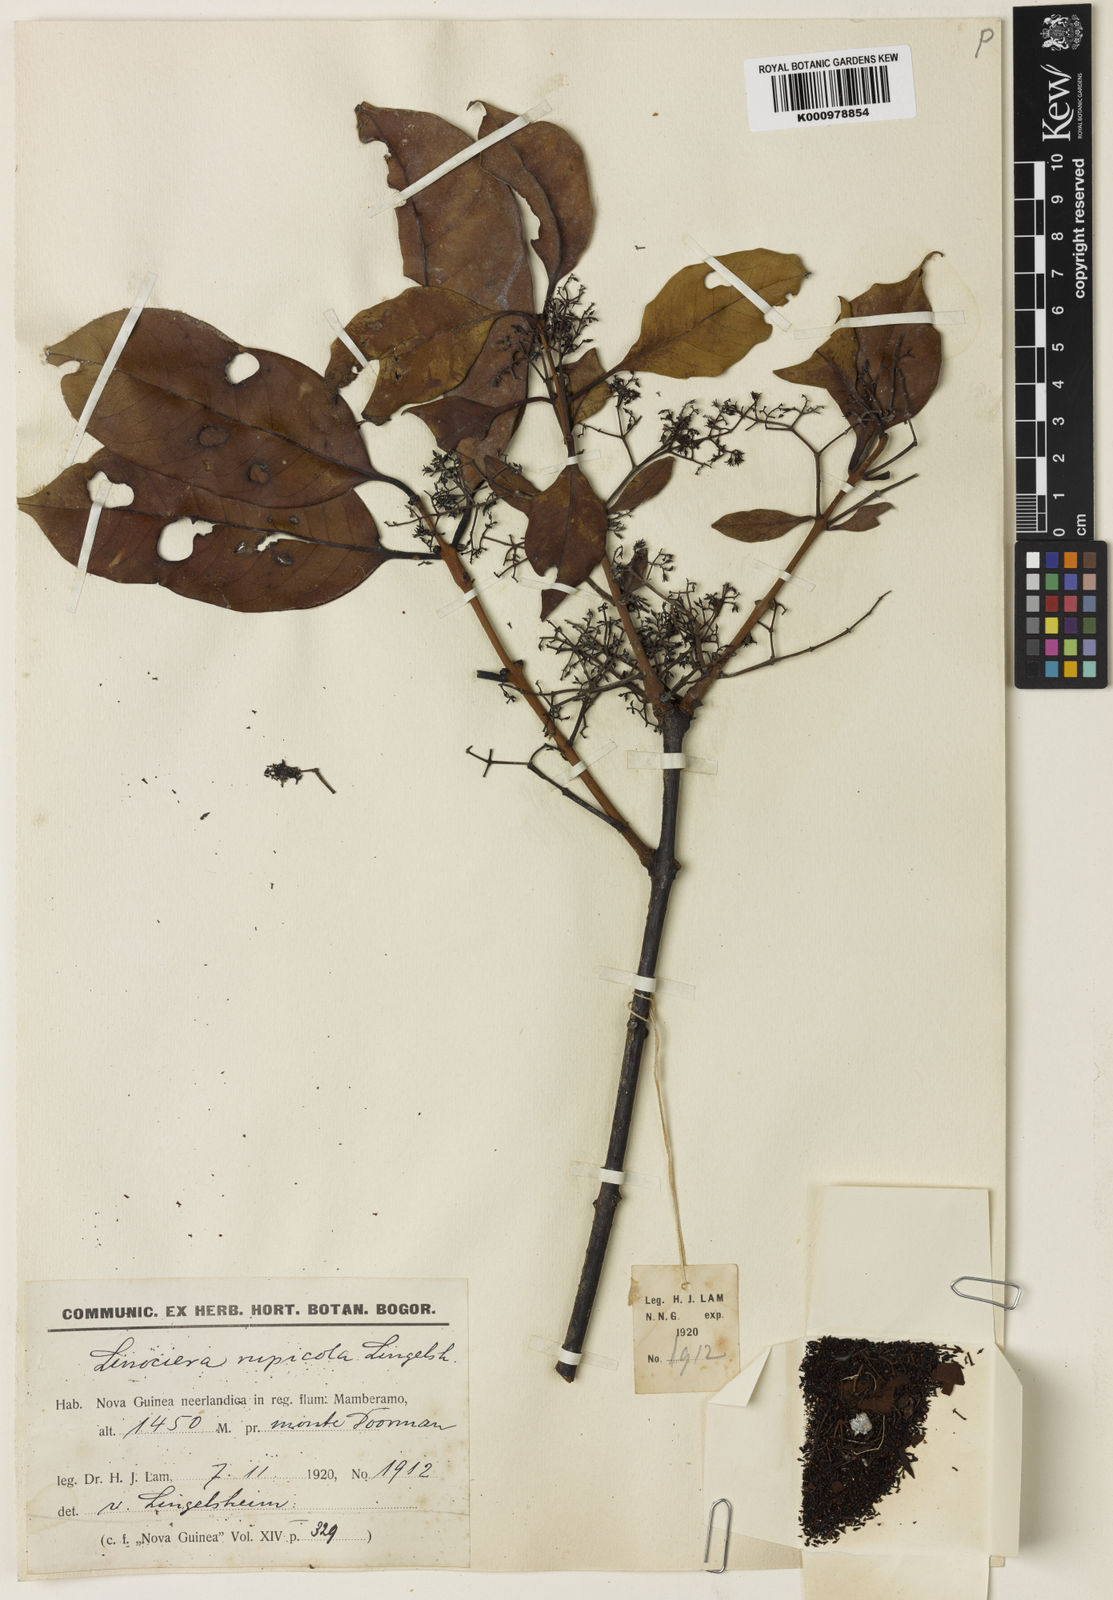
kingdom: Plantae
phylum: Tracheophyta
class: Magnoliopsida
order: Lamiales
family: Oleaceae
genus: Chionanthus
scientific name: Chionanthus rupicola
